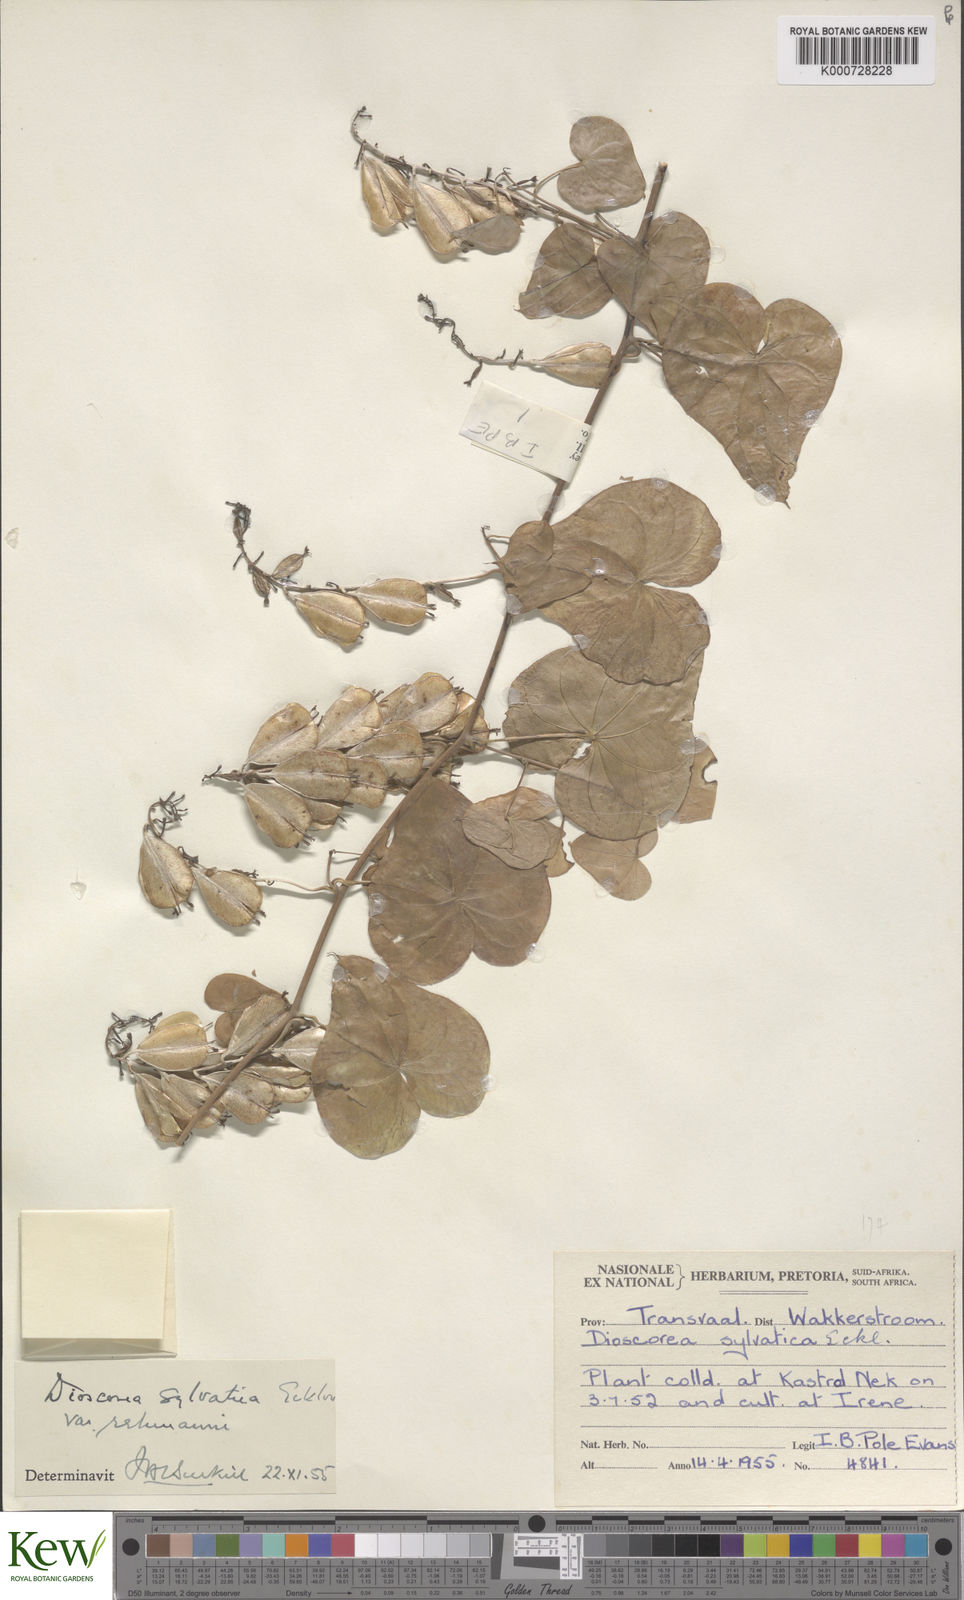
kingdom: Plantae
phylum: Tracheophyta
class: Liliopsida
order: Dioscoreales
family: Dioscoreaceae
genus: Dioscorea
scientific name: Dioscorea sylvatica
